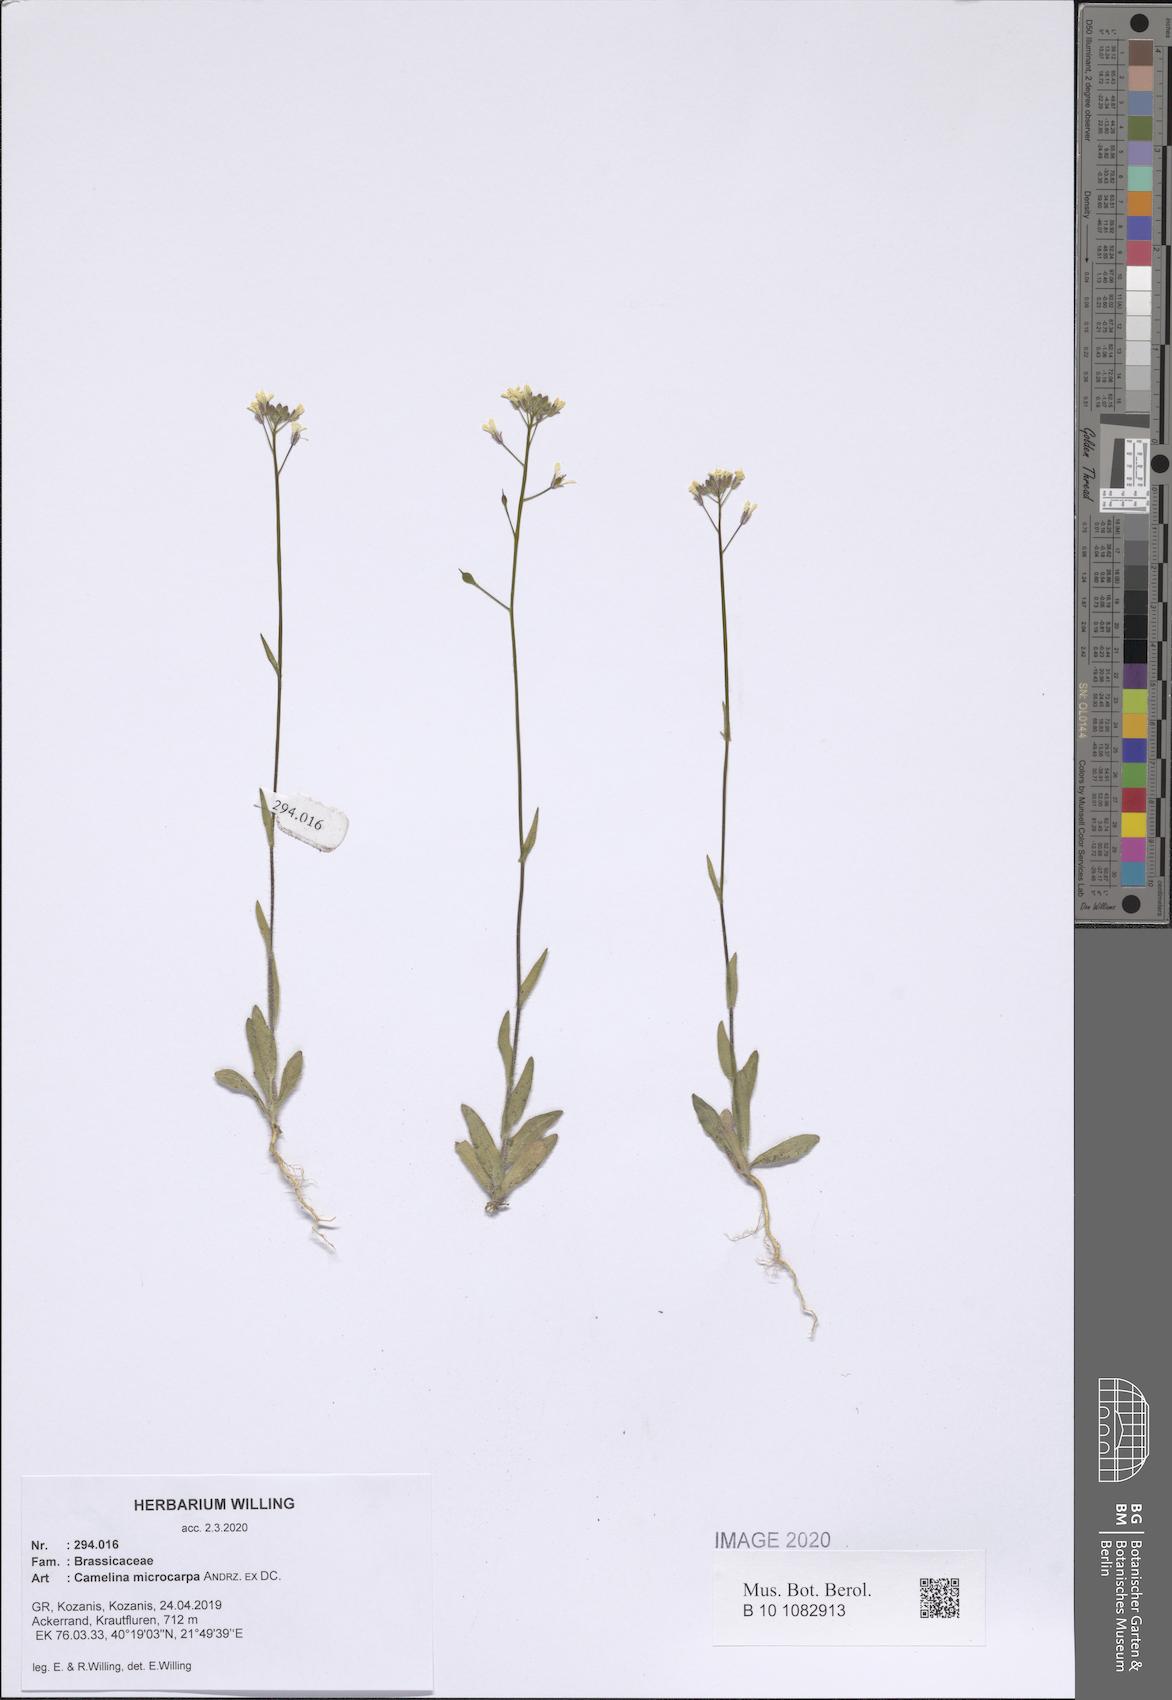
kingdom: Plantae
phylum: Tracheophyta
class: Magnoliopsida
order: Brassicales
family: Brassicaceae
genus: Camelina
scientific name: Camelina microcarpa
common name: Lesser gold-of-pleasure
